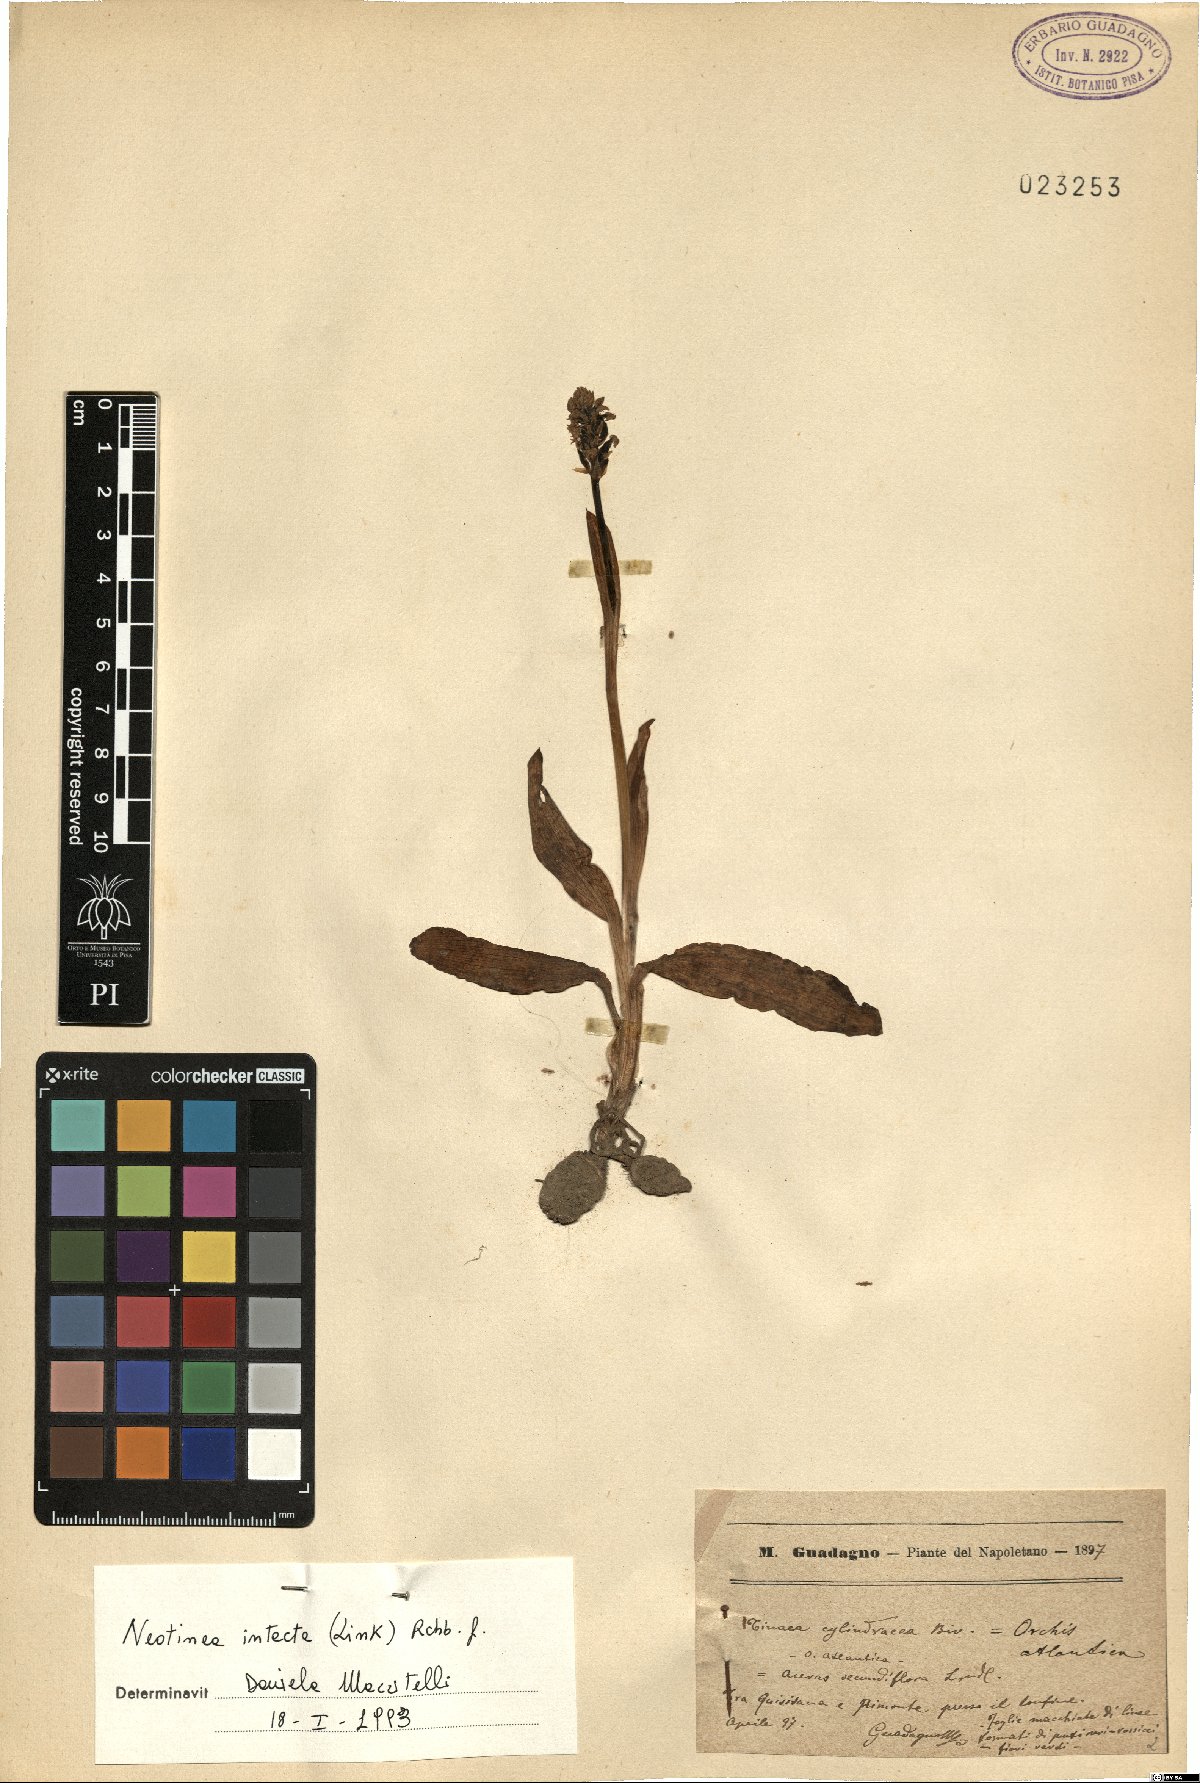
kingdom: Plantae
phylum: Tracheophyta
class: Liliopsida
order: Asparagales
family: Orchidaceae
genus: Neotinea
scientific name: Neotinea maculata
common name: Dense-flowered orchid
